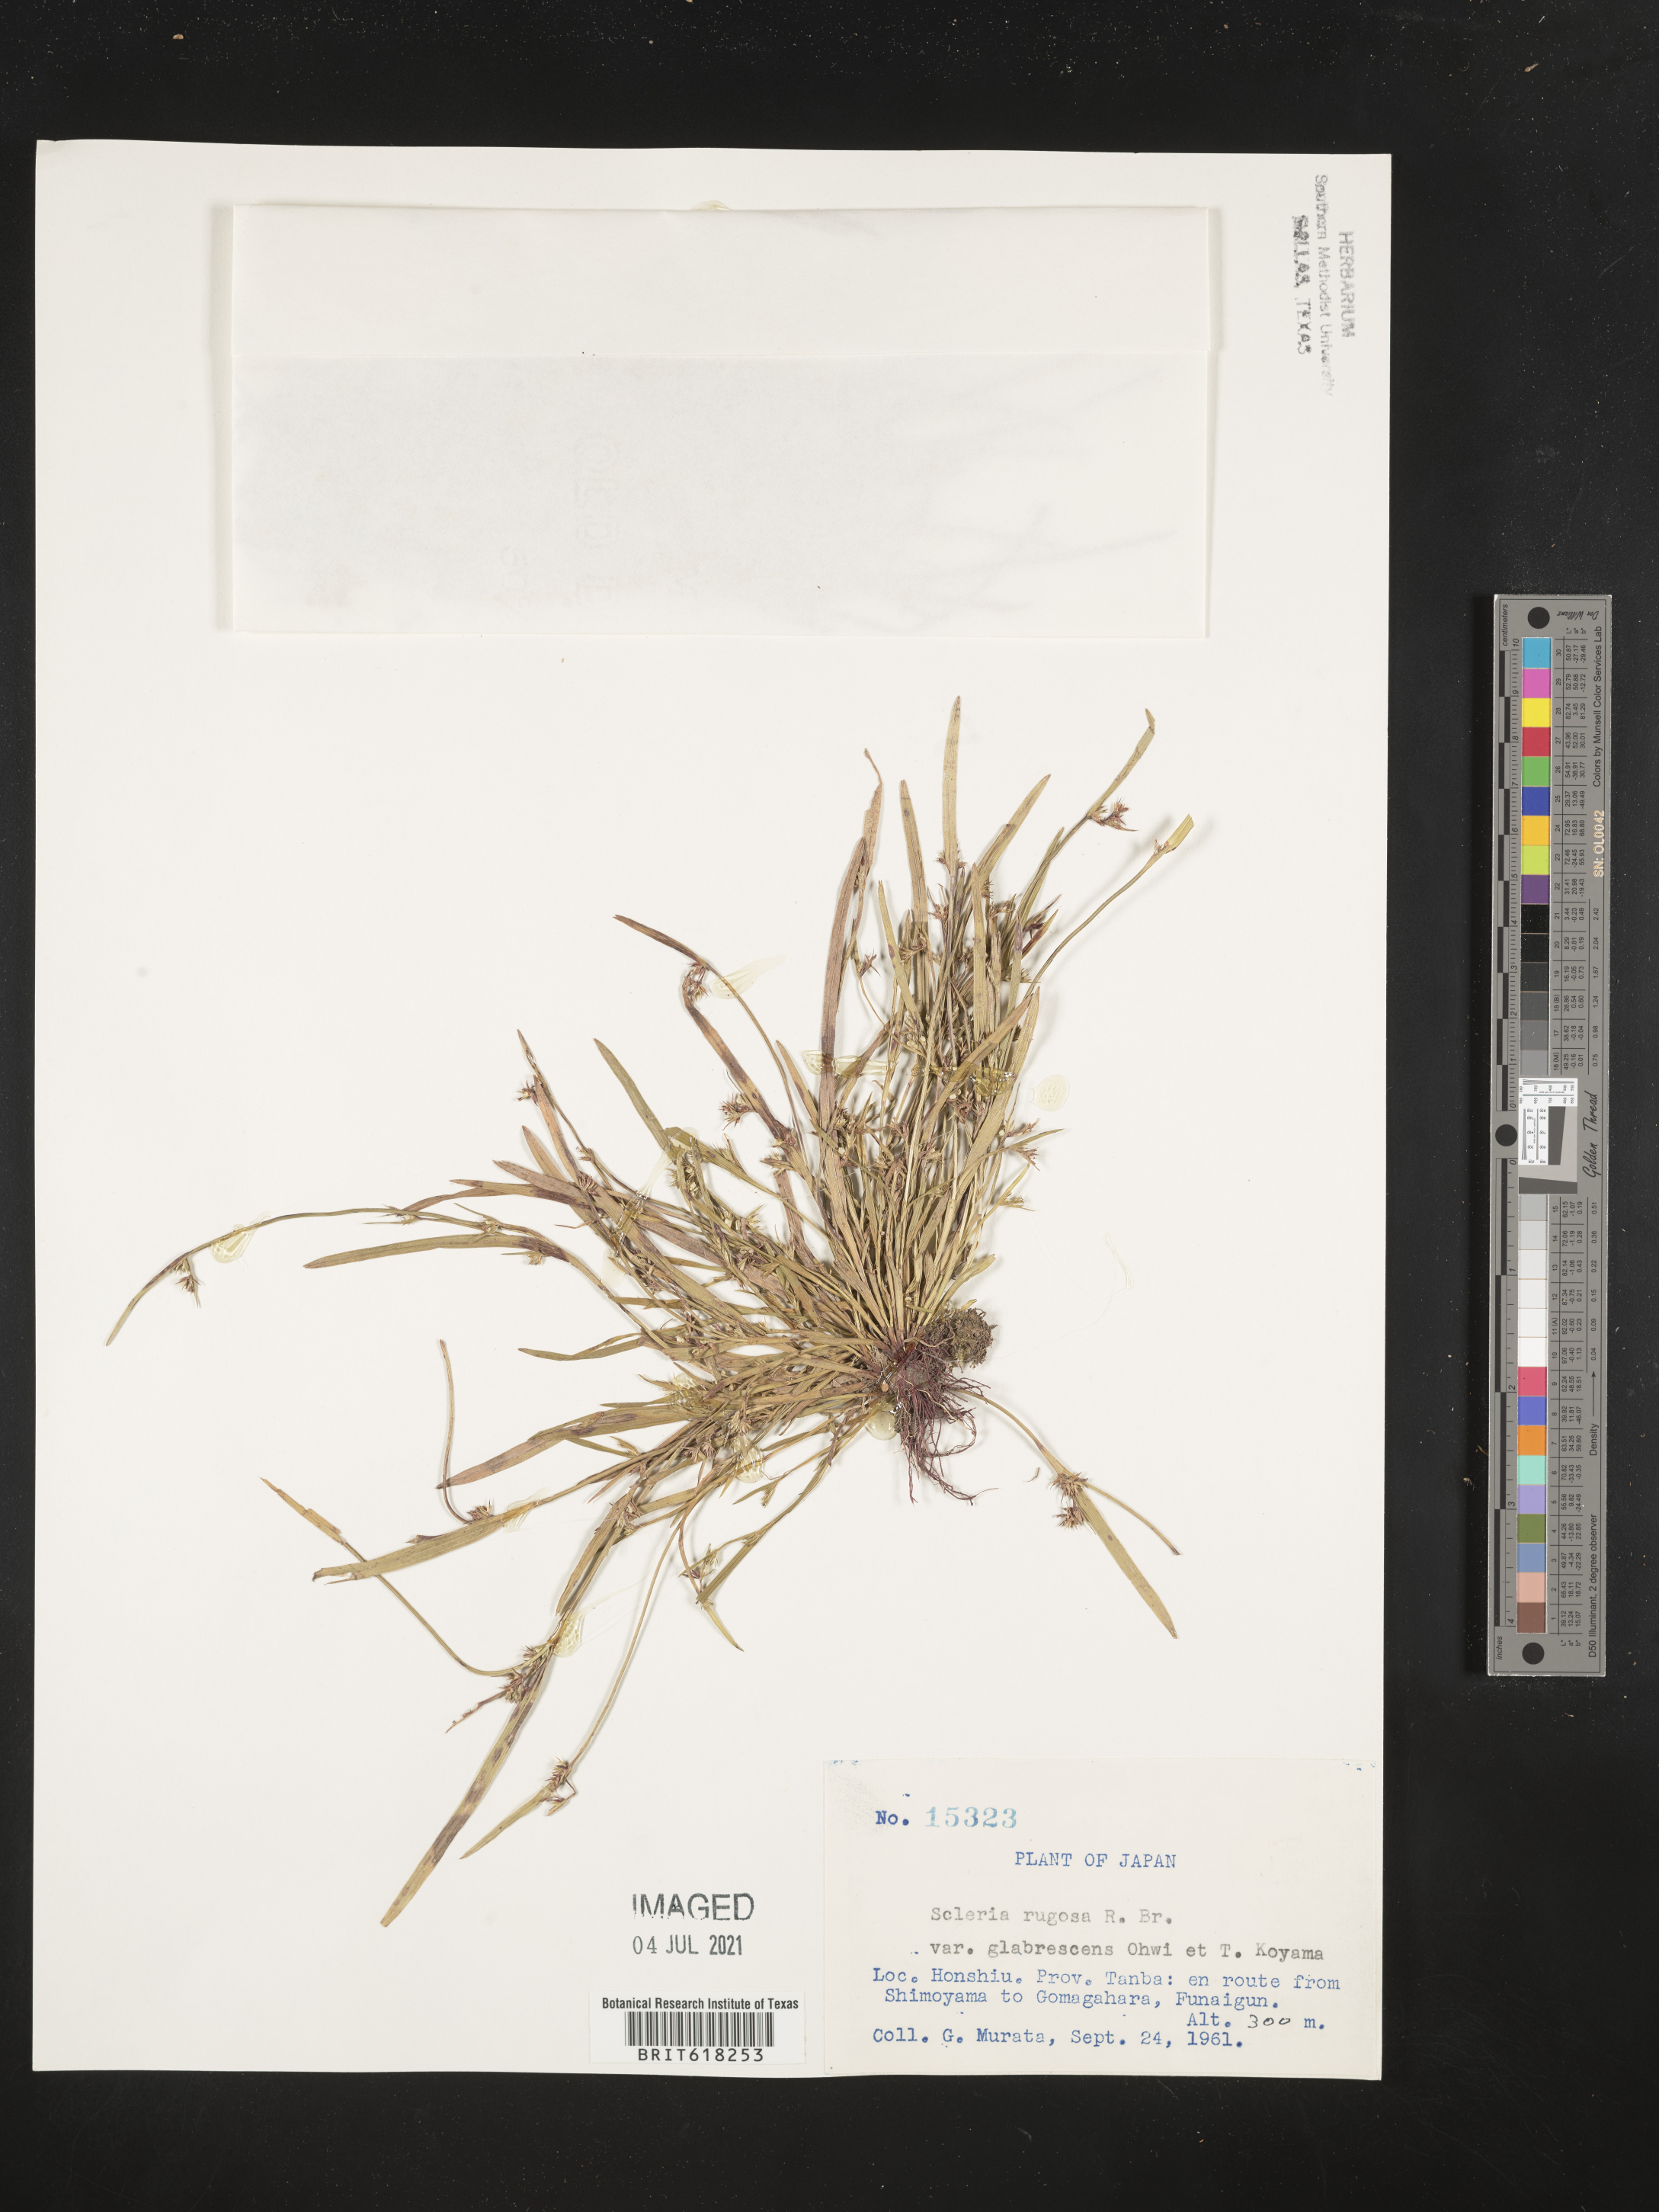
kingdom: Plantae
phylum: Tracheophyta
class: Liliopsida
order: Poales
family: Cyperaceae
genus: Scleria
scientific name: Scleria rugosa
